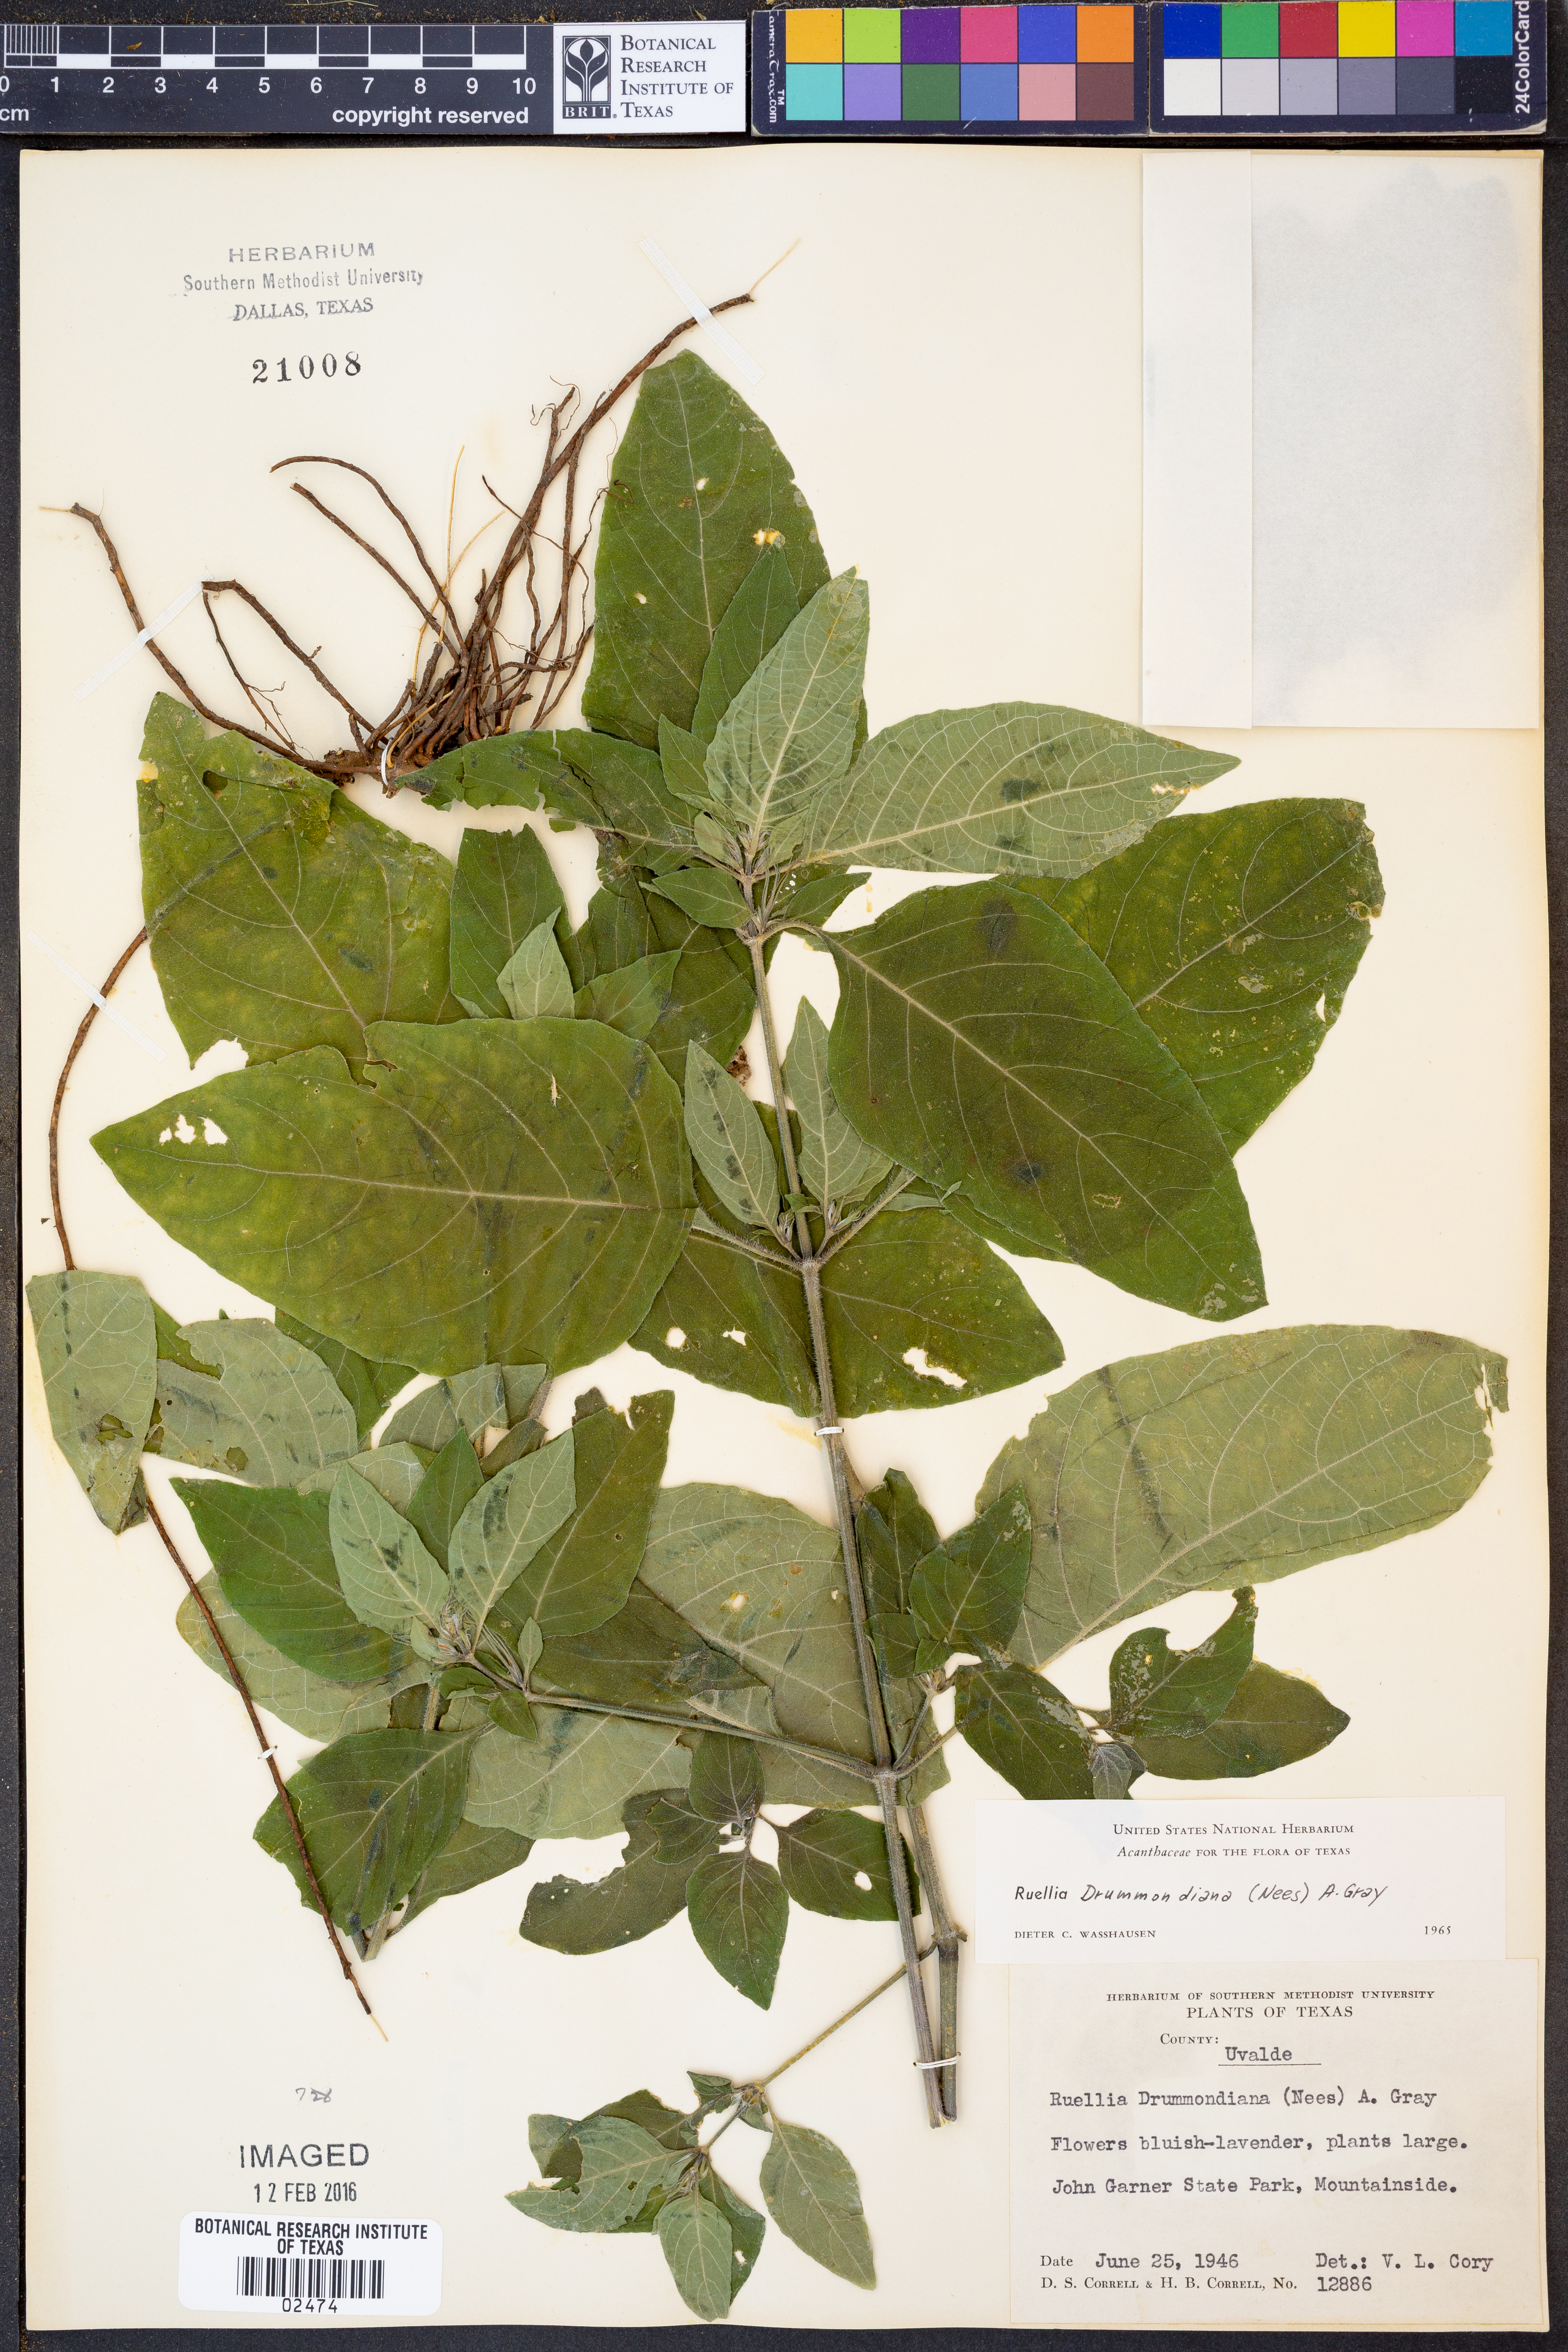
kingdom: Plantae
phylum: Tracheophyta
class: Magnoliopsida
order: Lamiales
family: Acanthaceae
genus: Ruellia
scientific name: Ruellia drummondiana
